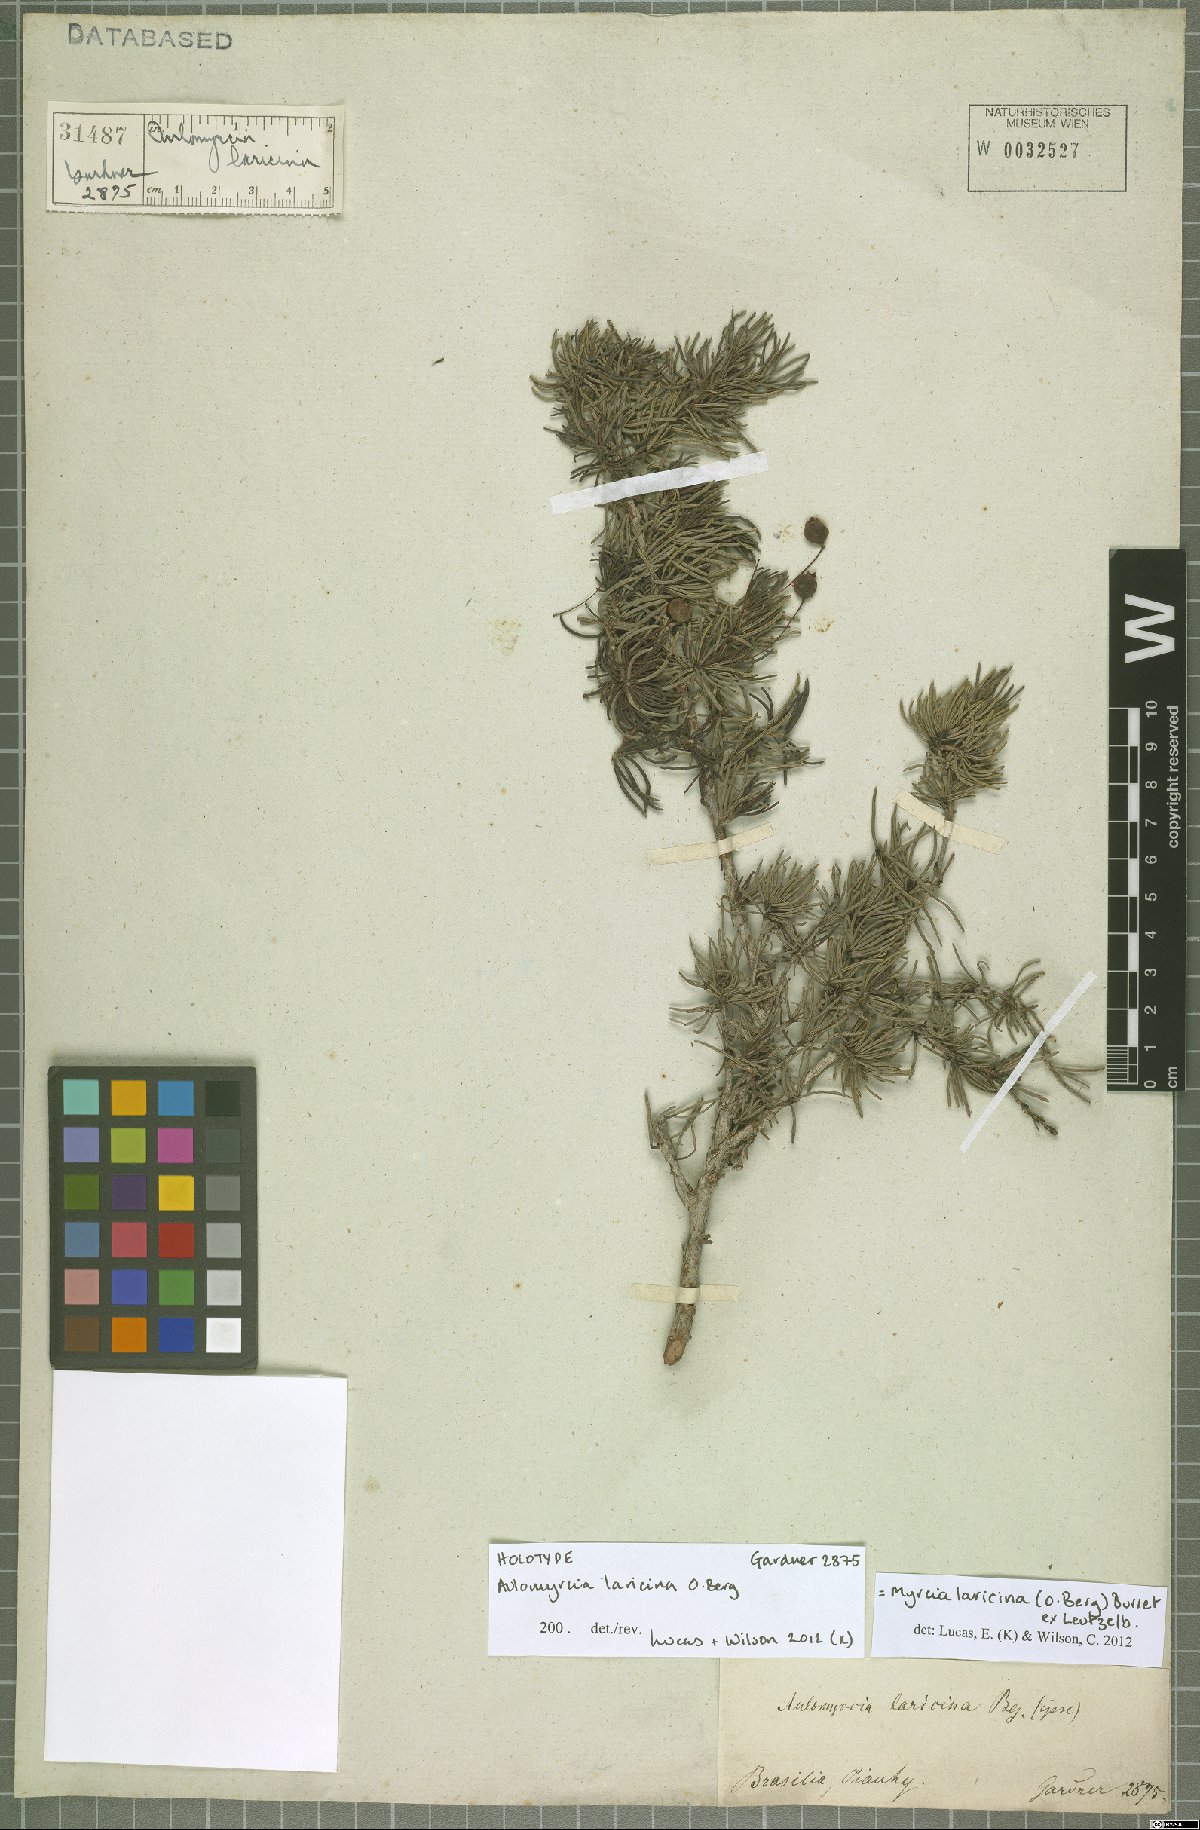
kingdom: Plantae
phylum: Tracheophyta
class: Magnoliopsida
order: Myrtales
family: Myrtaceae
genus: Myrcia
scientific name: Myrcia laricina
